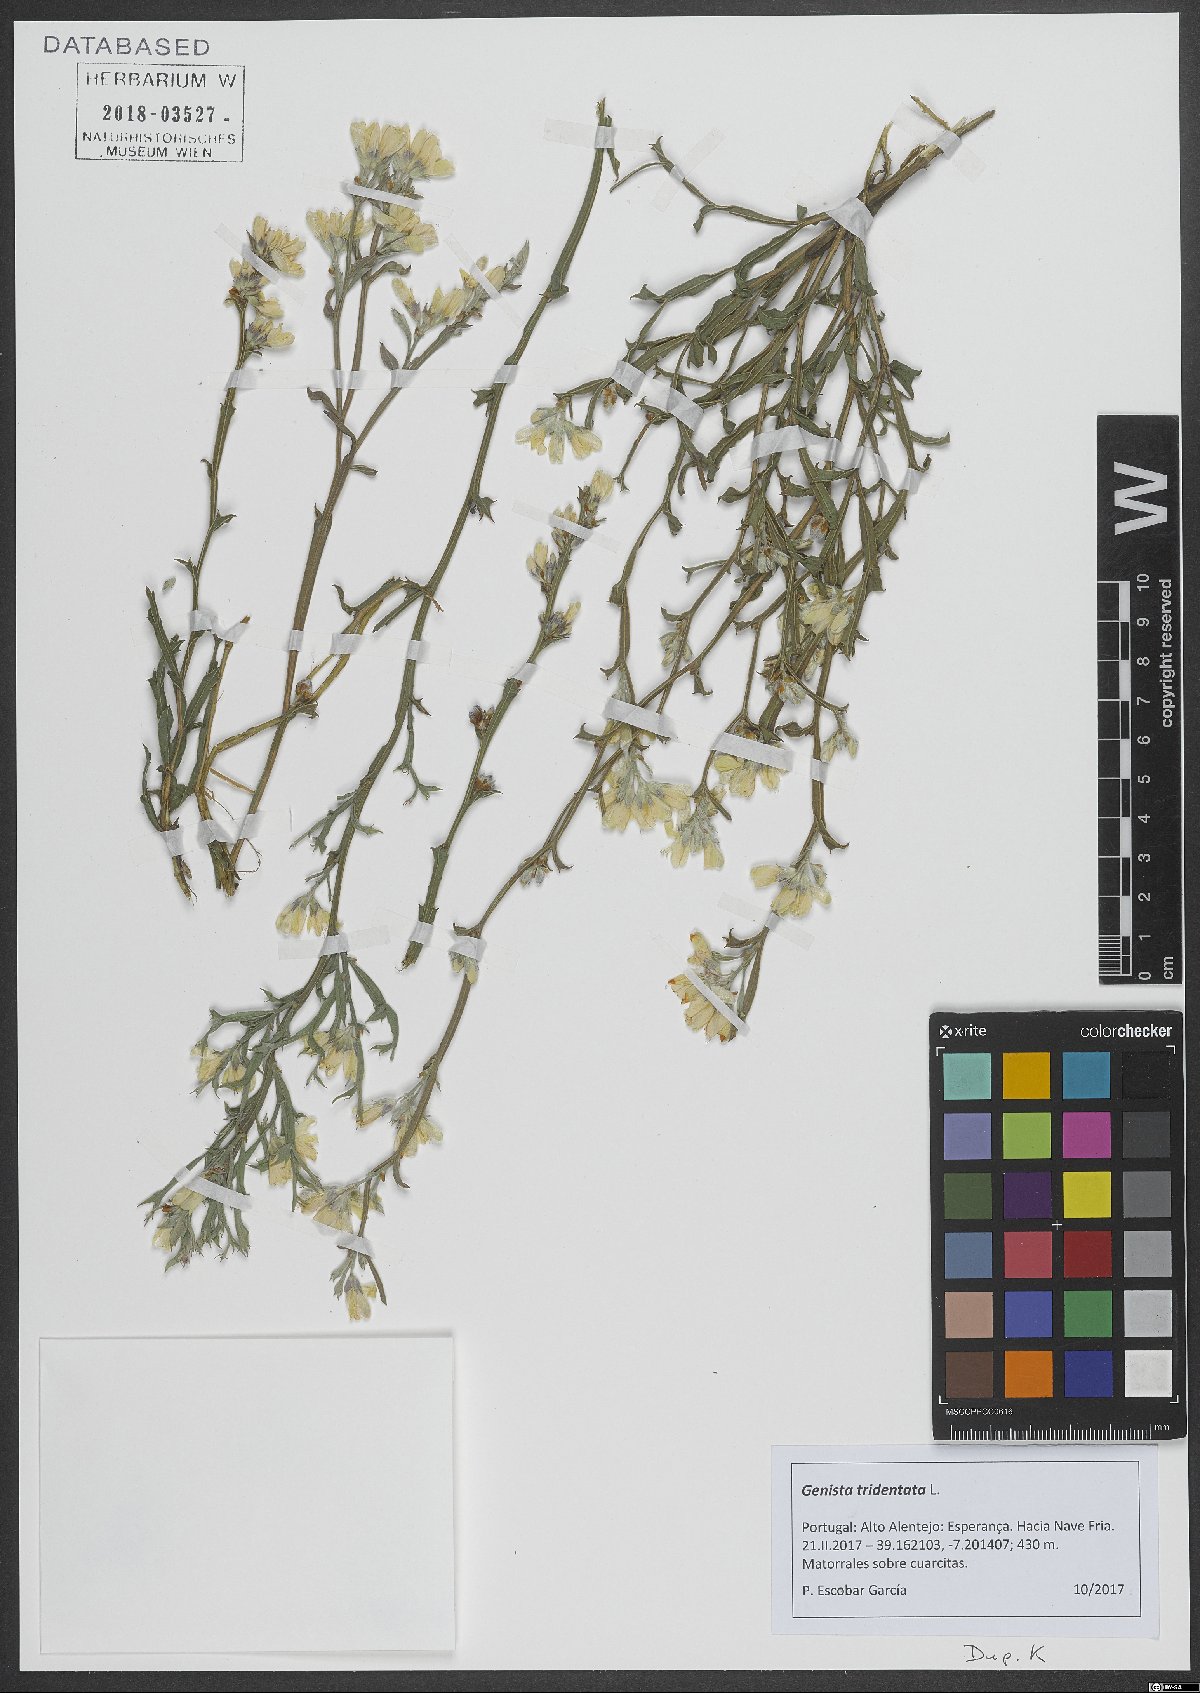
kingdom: Plantae
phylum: Tracheophyta
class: Magnoliopsida
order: Fabales
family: Fabaceae
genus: Genista
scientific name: Genista tridentata
